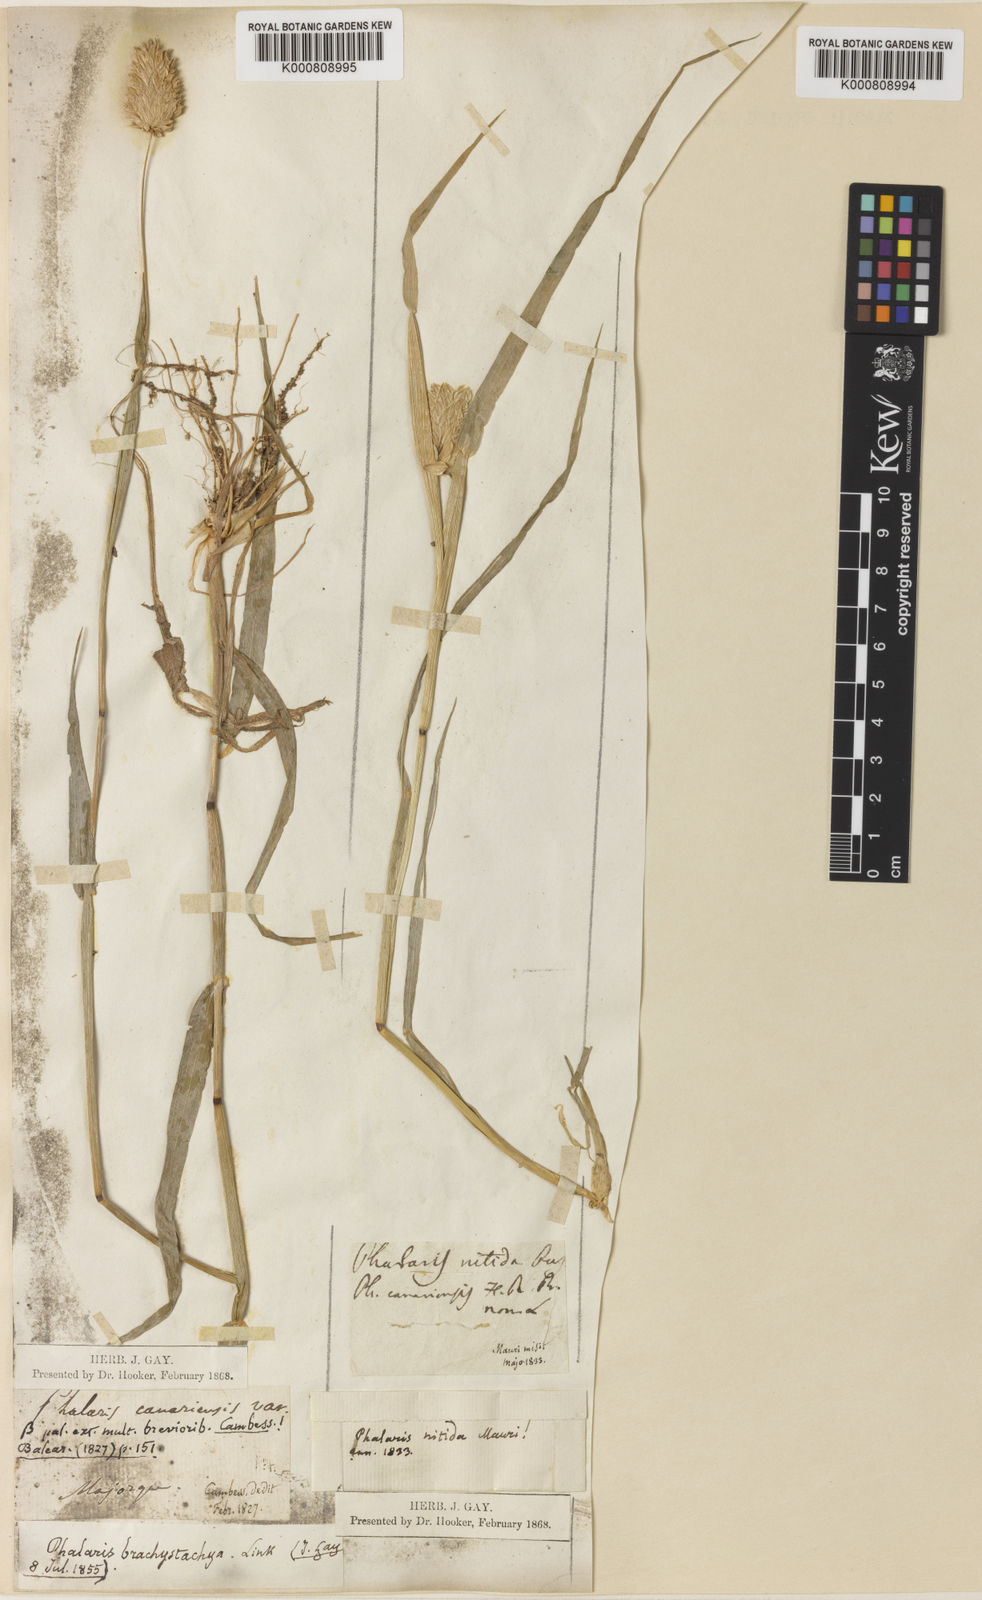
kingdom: Plantae
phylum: Tracheophyta
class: Liliopsida
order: Poales
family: Poaceae
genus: Phalaris
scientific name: Phalaris brachystachys
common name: Confused canary-grass
